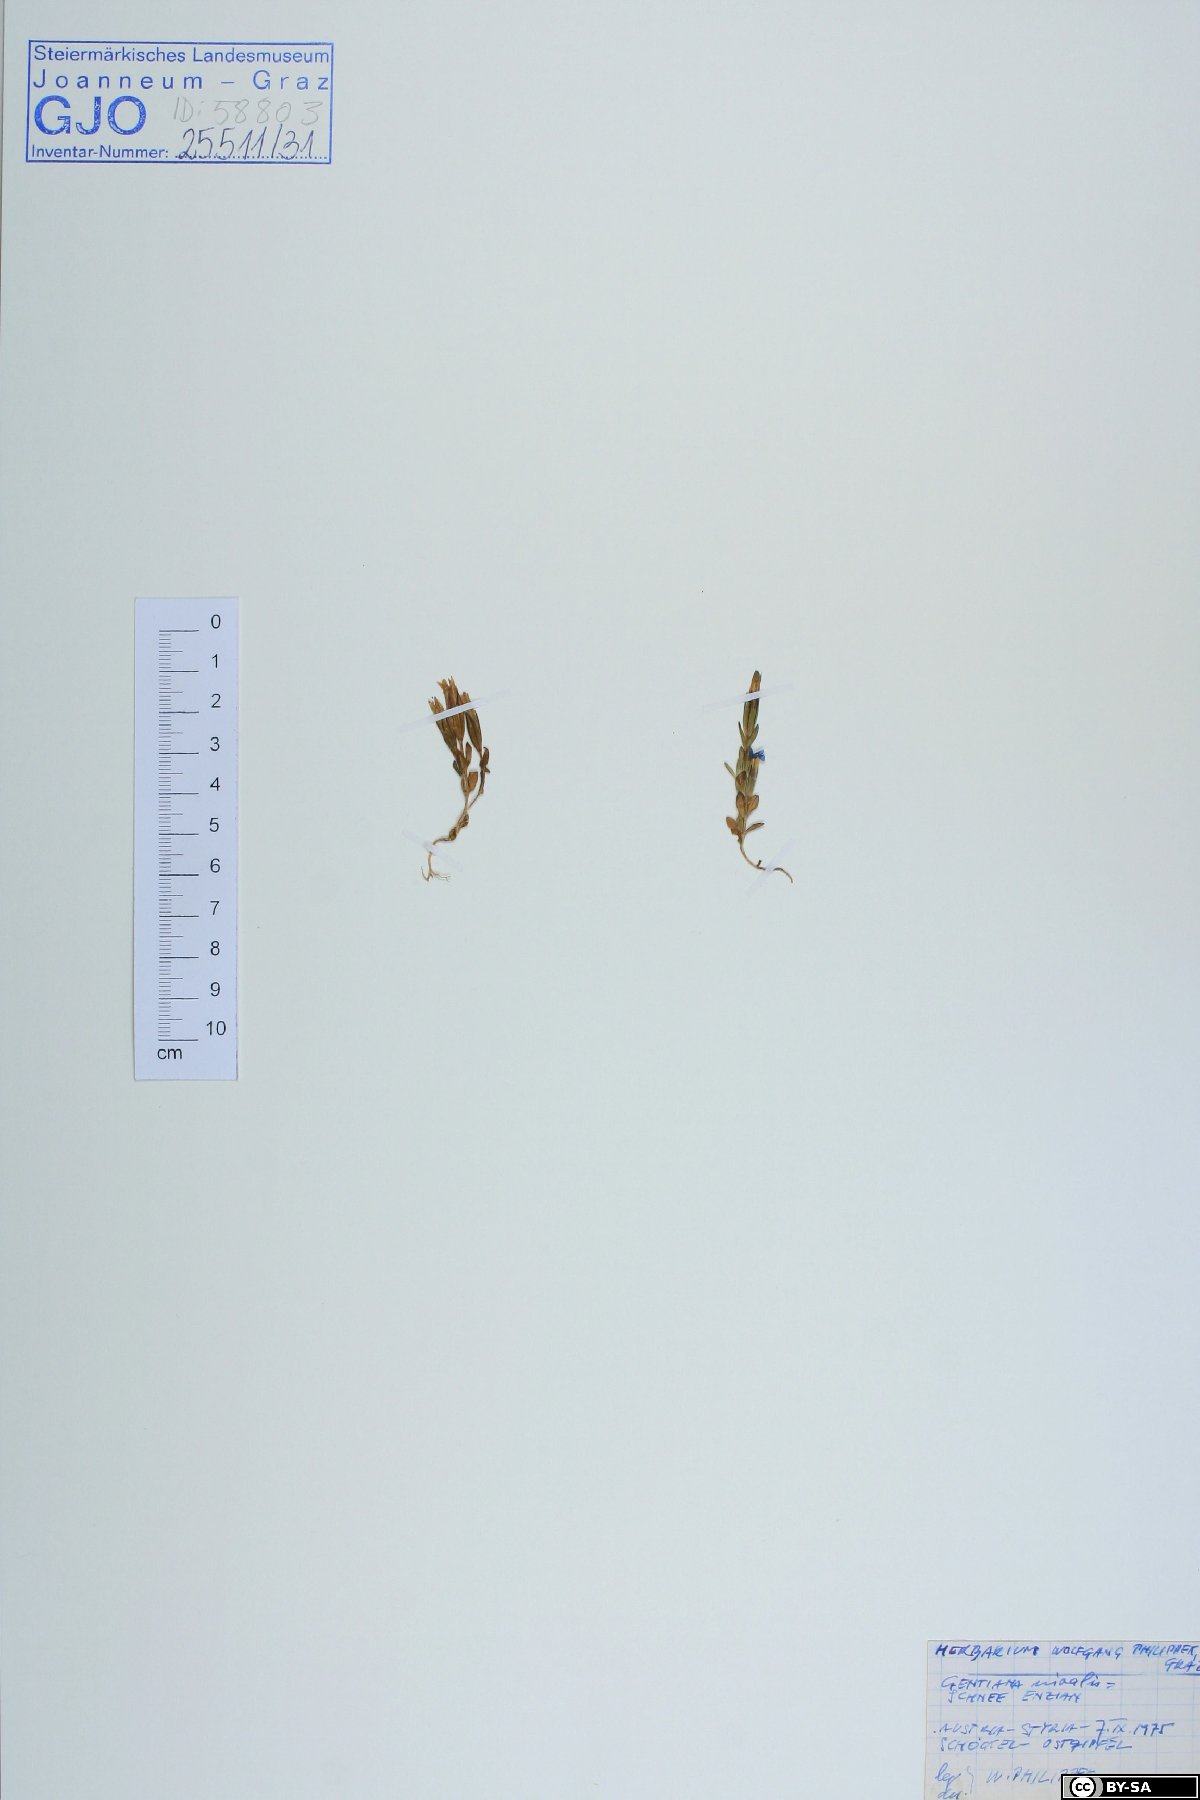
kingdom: Plantae
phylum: Tracheophyta
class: Magnoliopsida
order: Gentianales
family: Gentianaceae
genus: Gentiana
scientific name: Gentiana nivalis
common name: Alpine gentian
